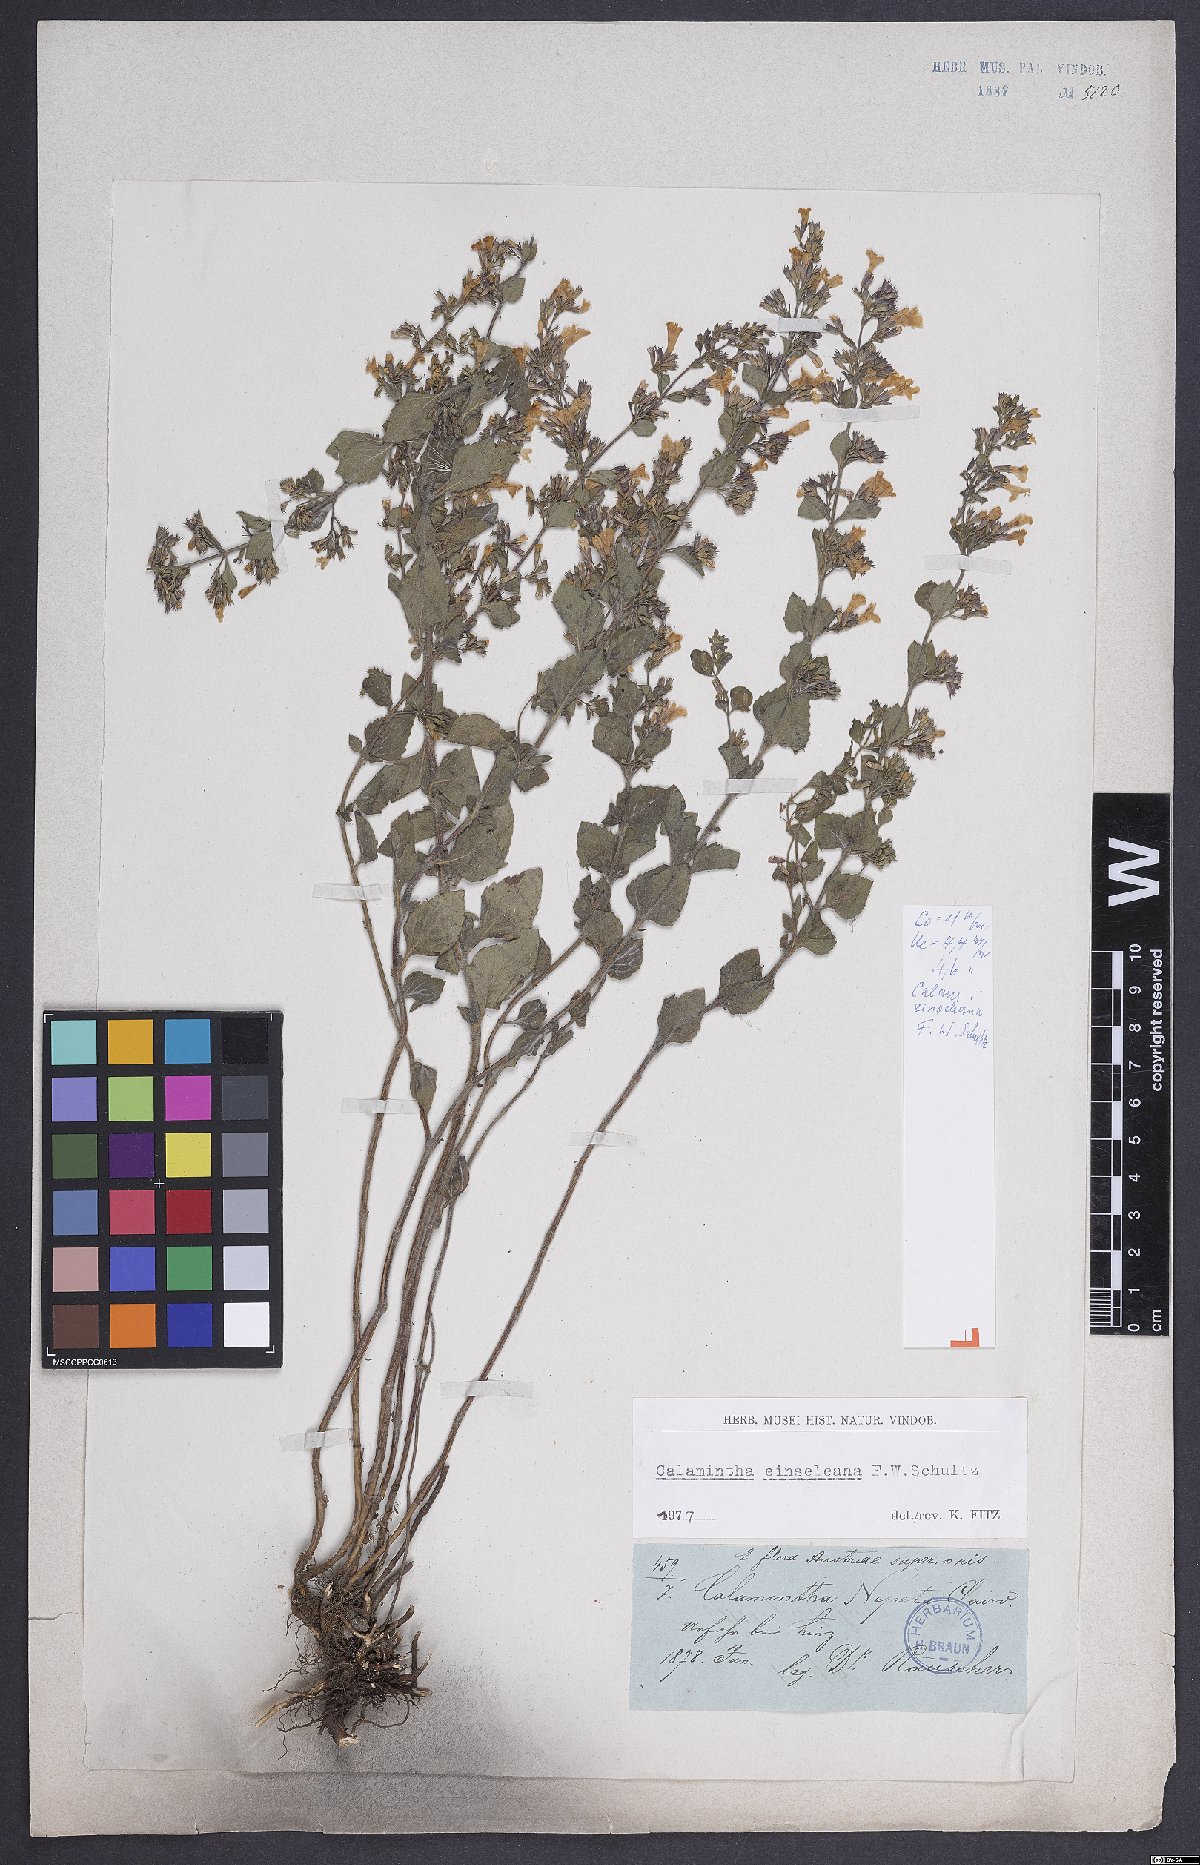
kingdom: Plantae
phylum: Tracheophyta
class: Magnoliopsida
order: Lamiales
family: Lamiaceae
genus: Clinopodium
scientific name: Clinopodium nepeta
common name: Lesser calamint
